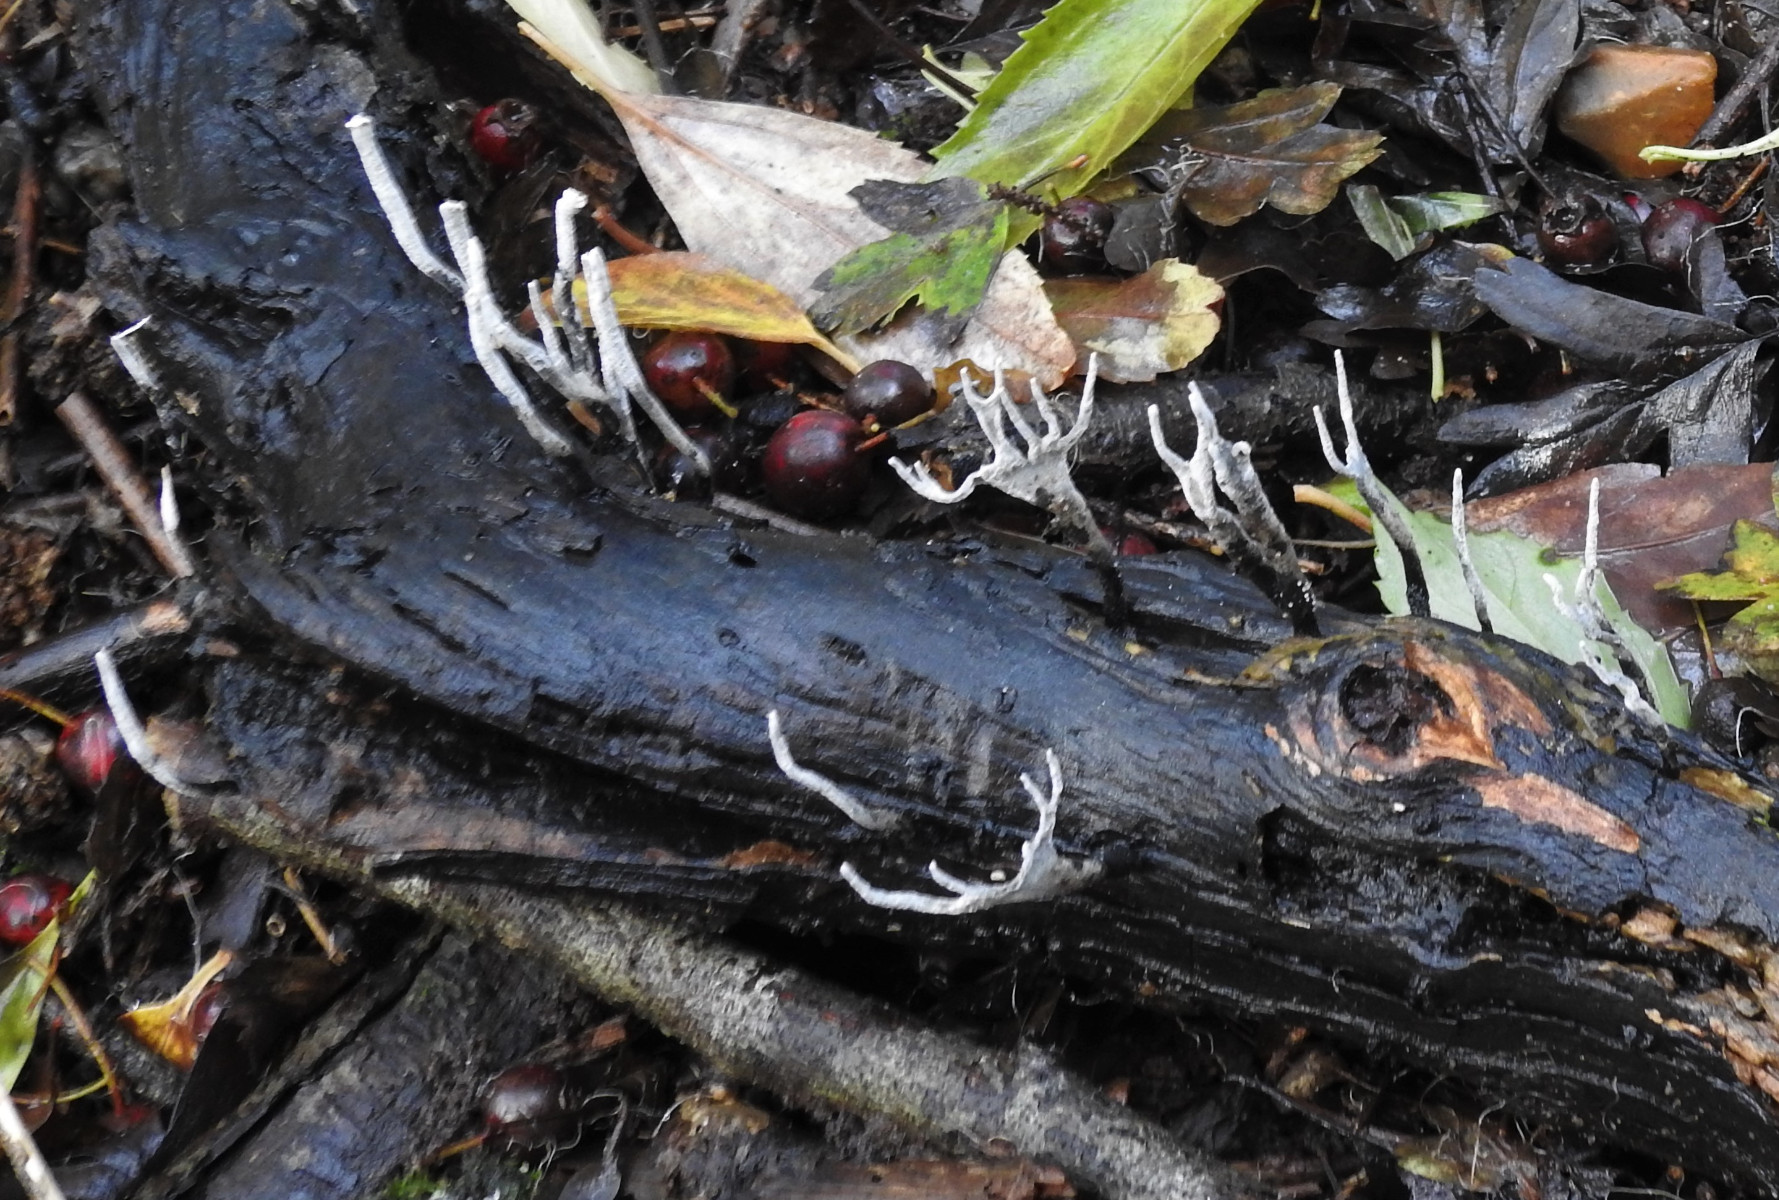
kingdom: Fungi
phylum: Ascomycota
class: Sordariomycetes
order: Xylariales
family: Xylariaceae
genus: Xylaria
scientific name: Xylaria hypoxylon
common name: grenet stødsvamp
